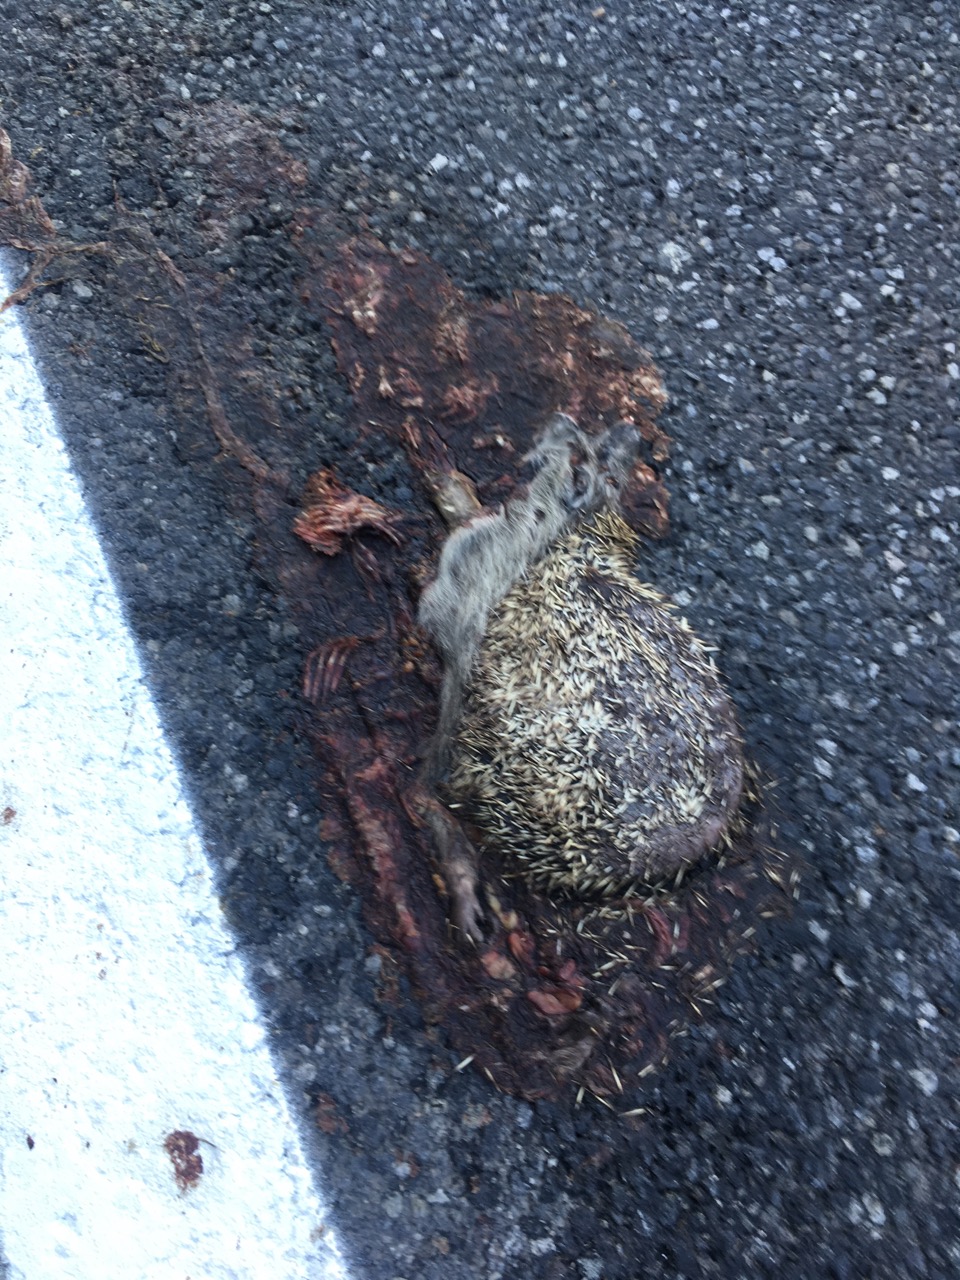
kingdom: Animalia
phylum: Chordata
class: Mammalia
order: Erinaceomorpha
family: Erinaceidae
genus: Erinaceus
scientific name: Erinaceus
